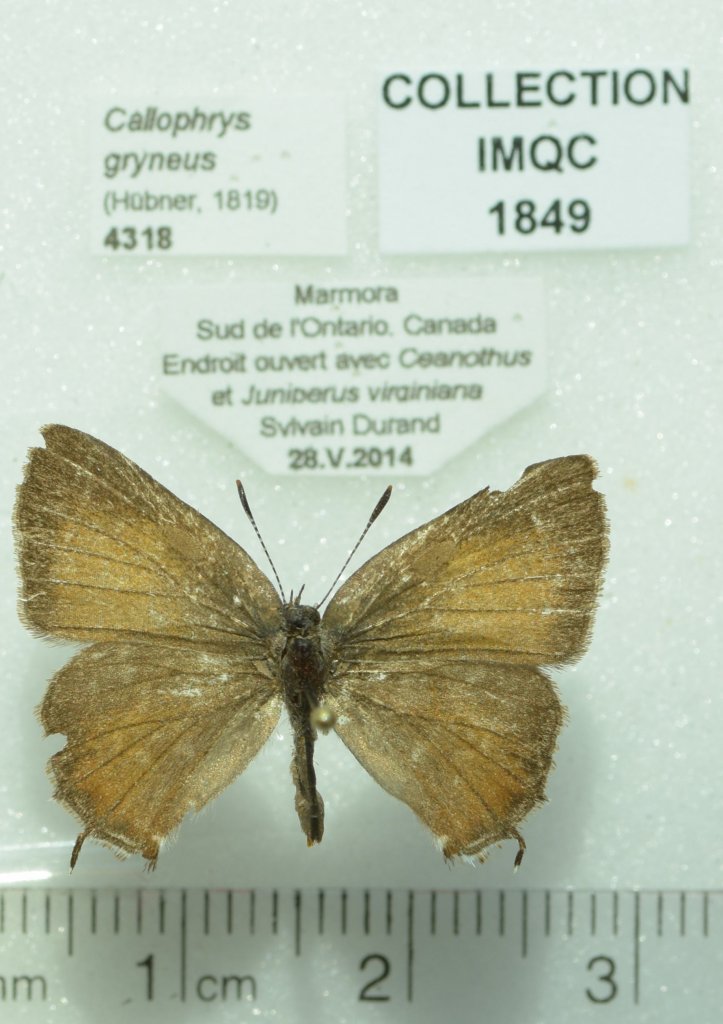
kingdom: Animalia
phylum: Arthropoda
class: Insecta
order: Lepidoptera
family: Lycaenidae
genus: Mitoura
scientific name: Mitoura gryneus
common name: Juniper Hairstreak
